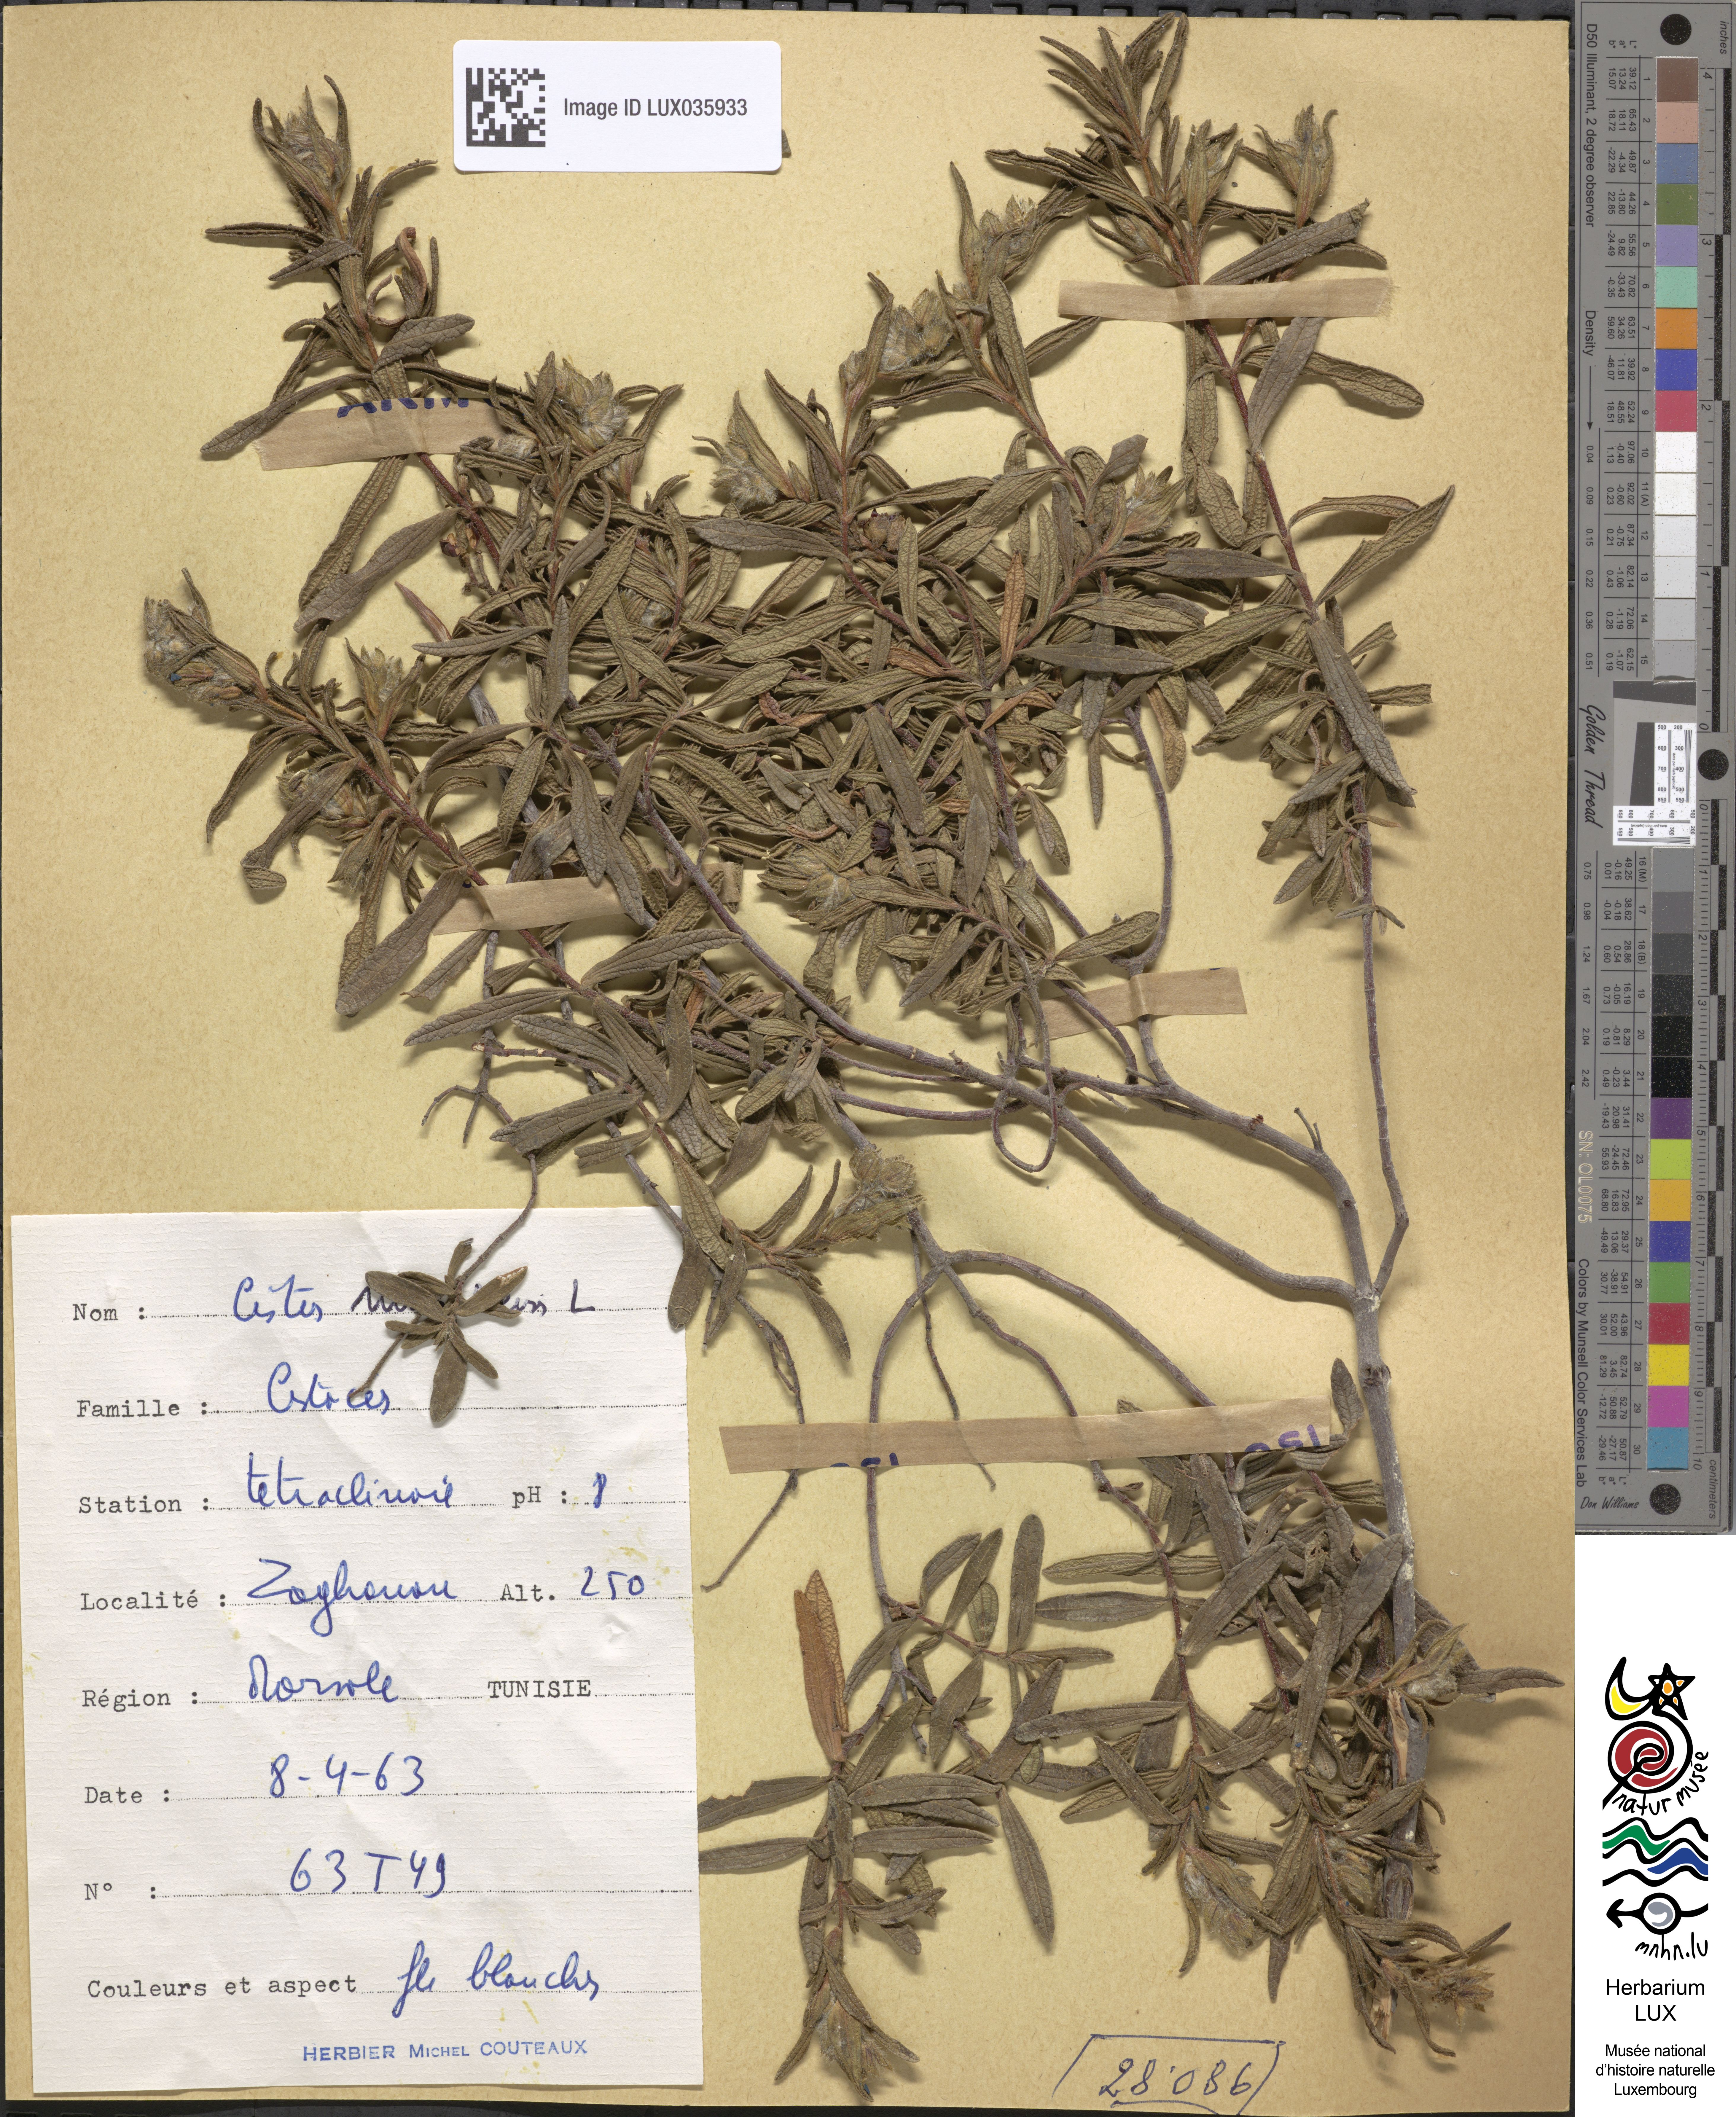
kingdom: Plantae
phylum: Tracheophyta
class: Magnoliopsida
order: Malvales
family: Cistaceae
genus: Cistus
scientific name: Cistus monspeliensis
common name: Montpelier cistus
